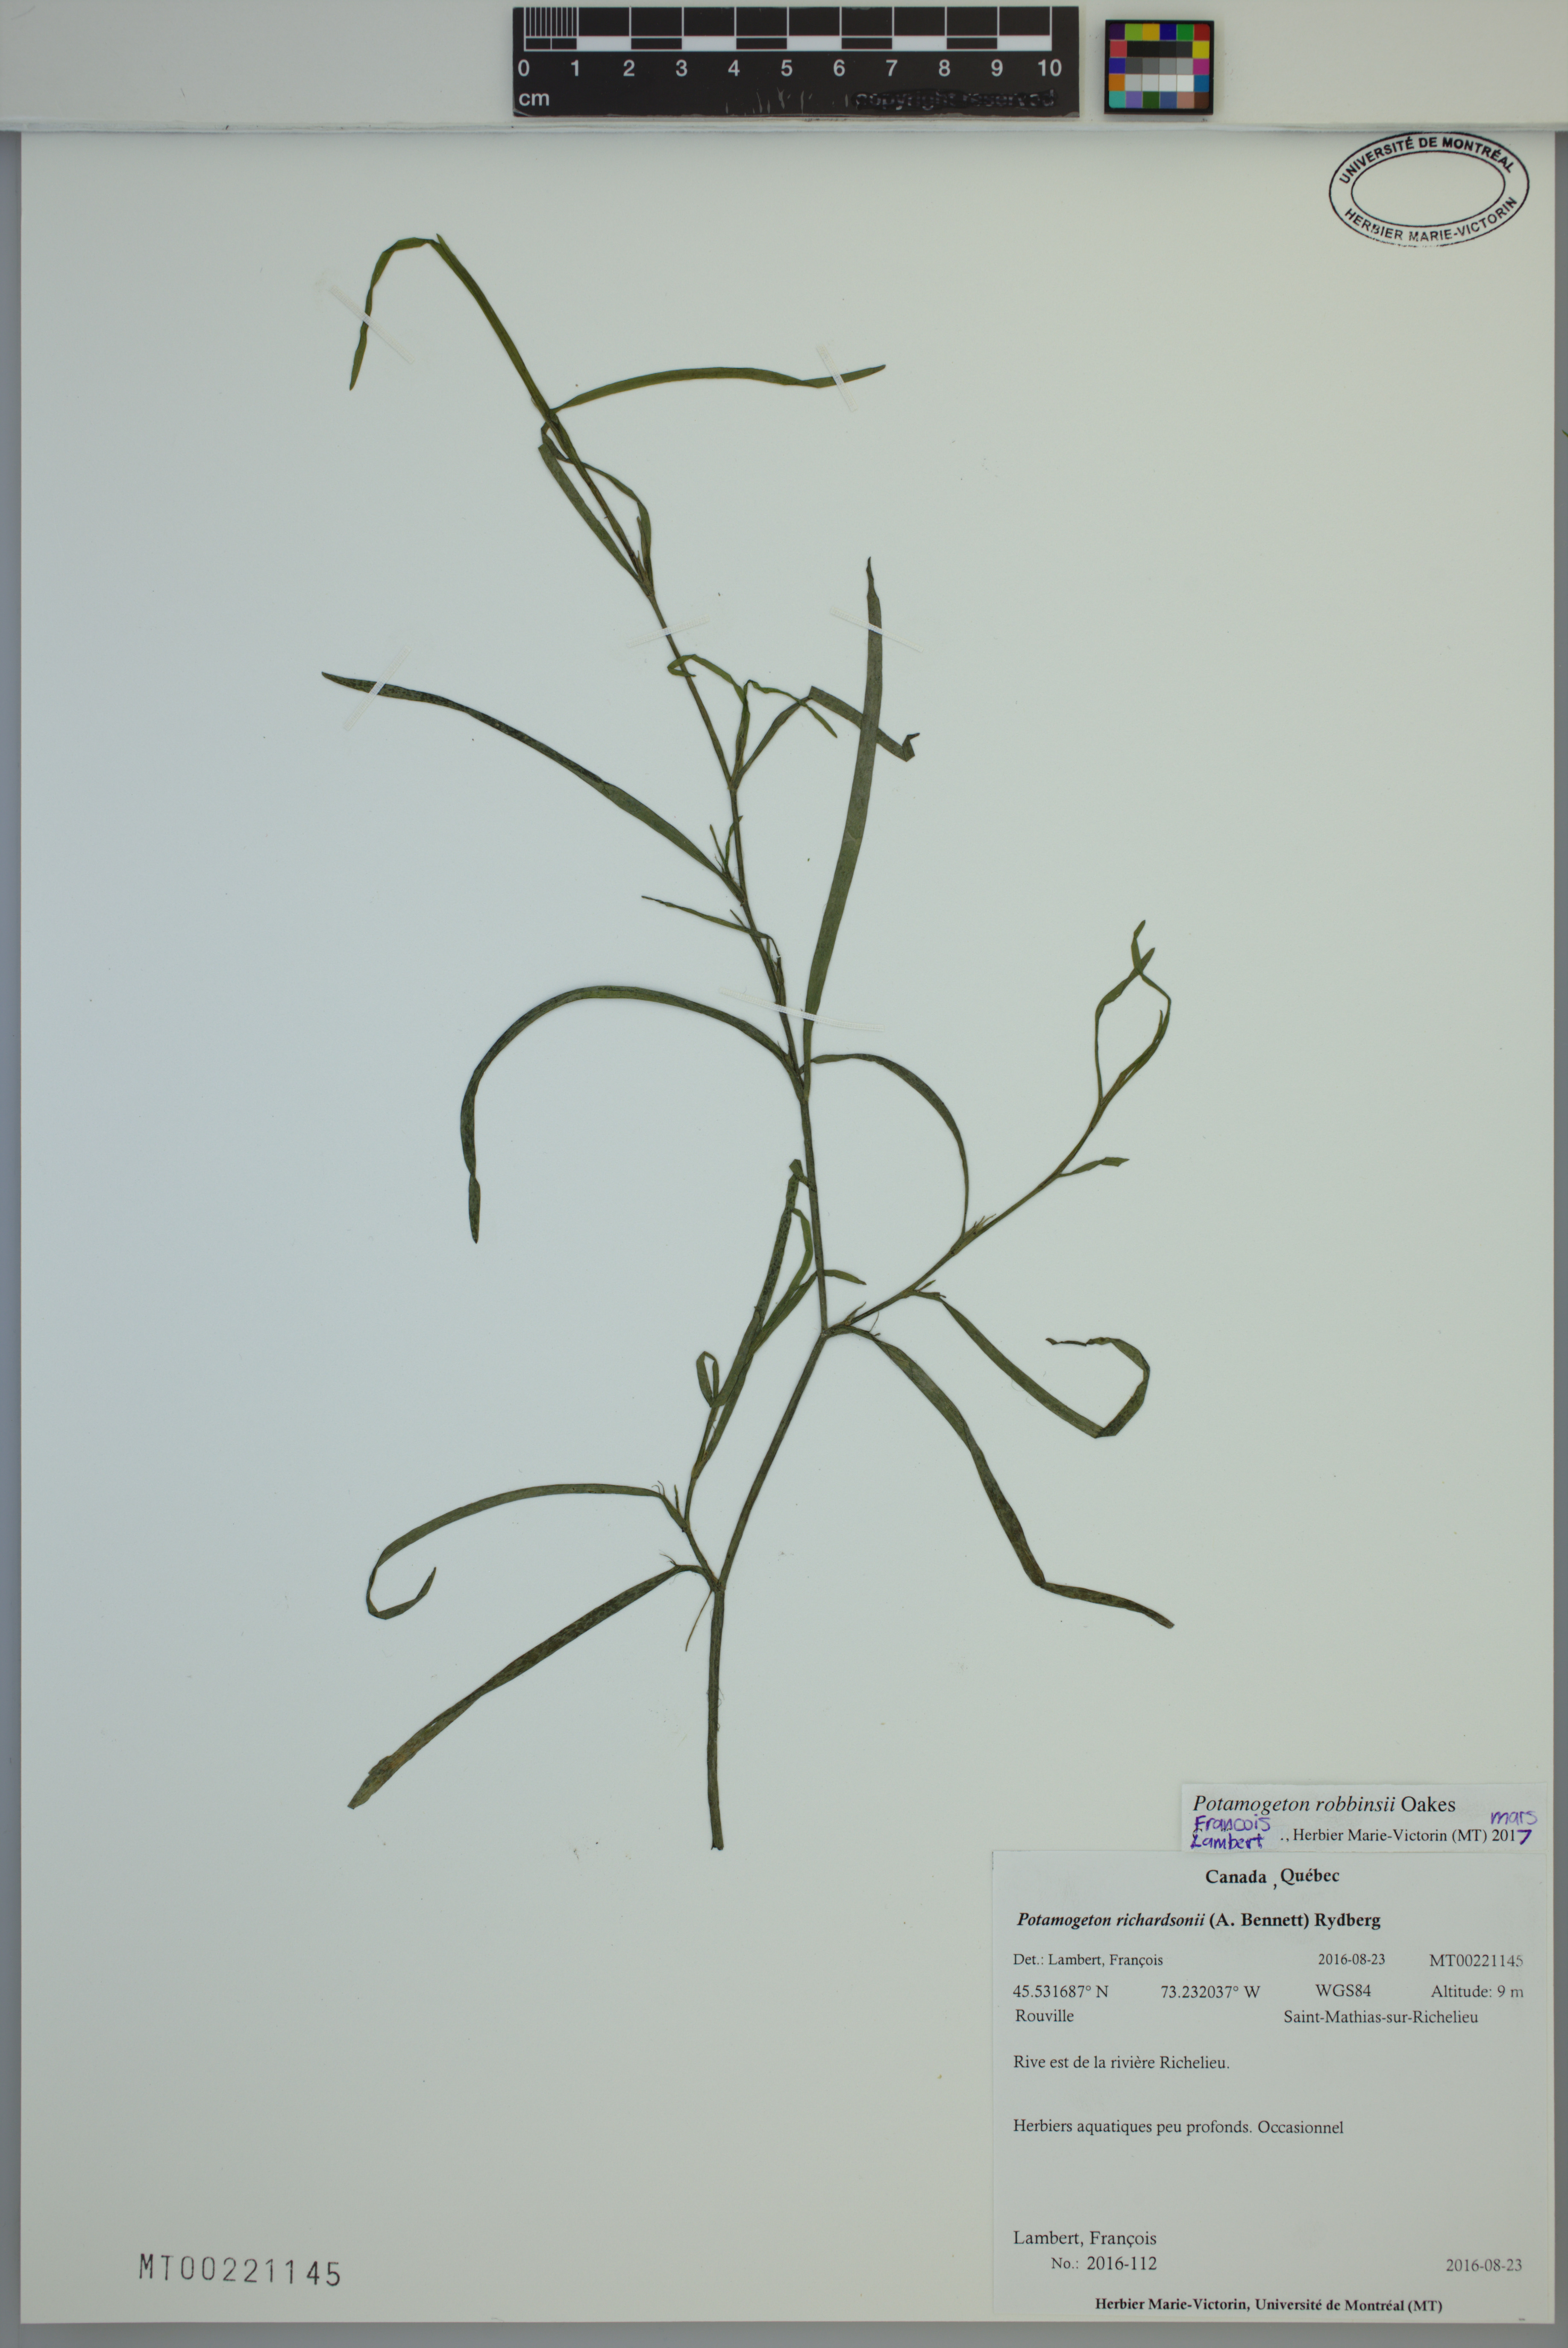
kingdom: Plantae
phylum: Tracheophyta
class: Liliopsida
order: Alismatales
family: Potamogetonaceae
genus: Potamogeton
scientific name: Potamogeton robbinsii
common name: Fern pondweed
